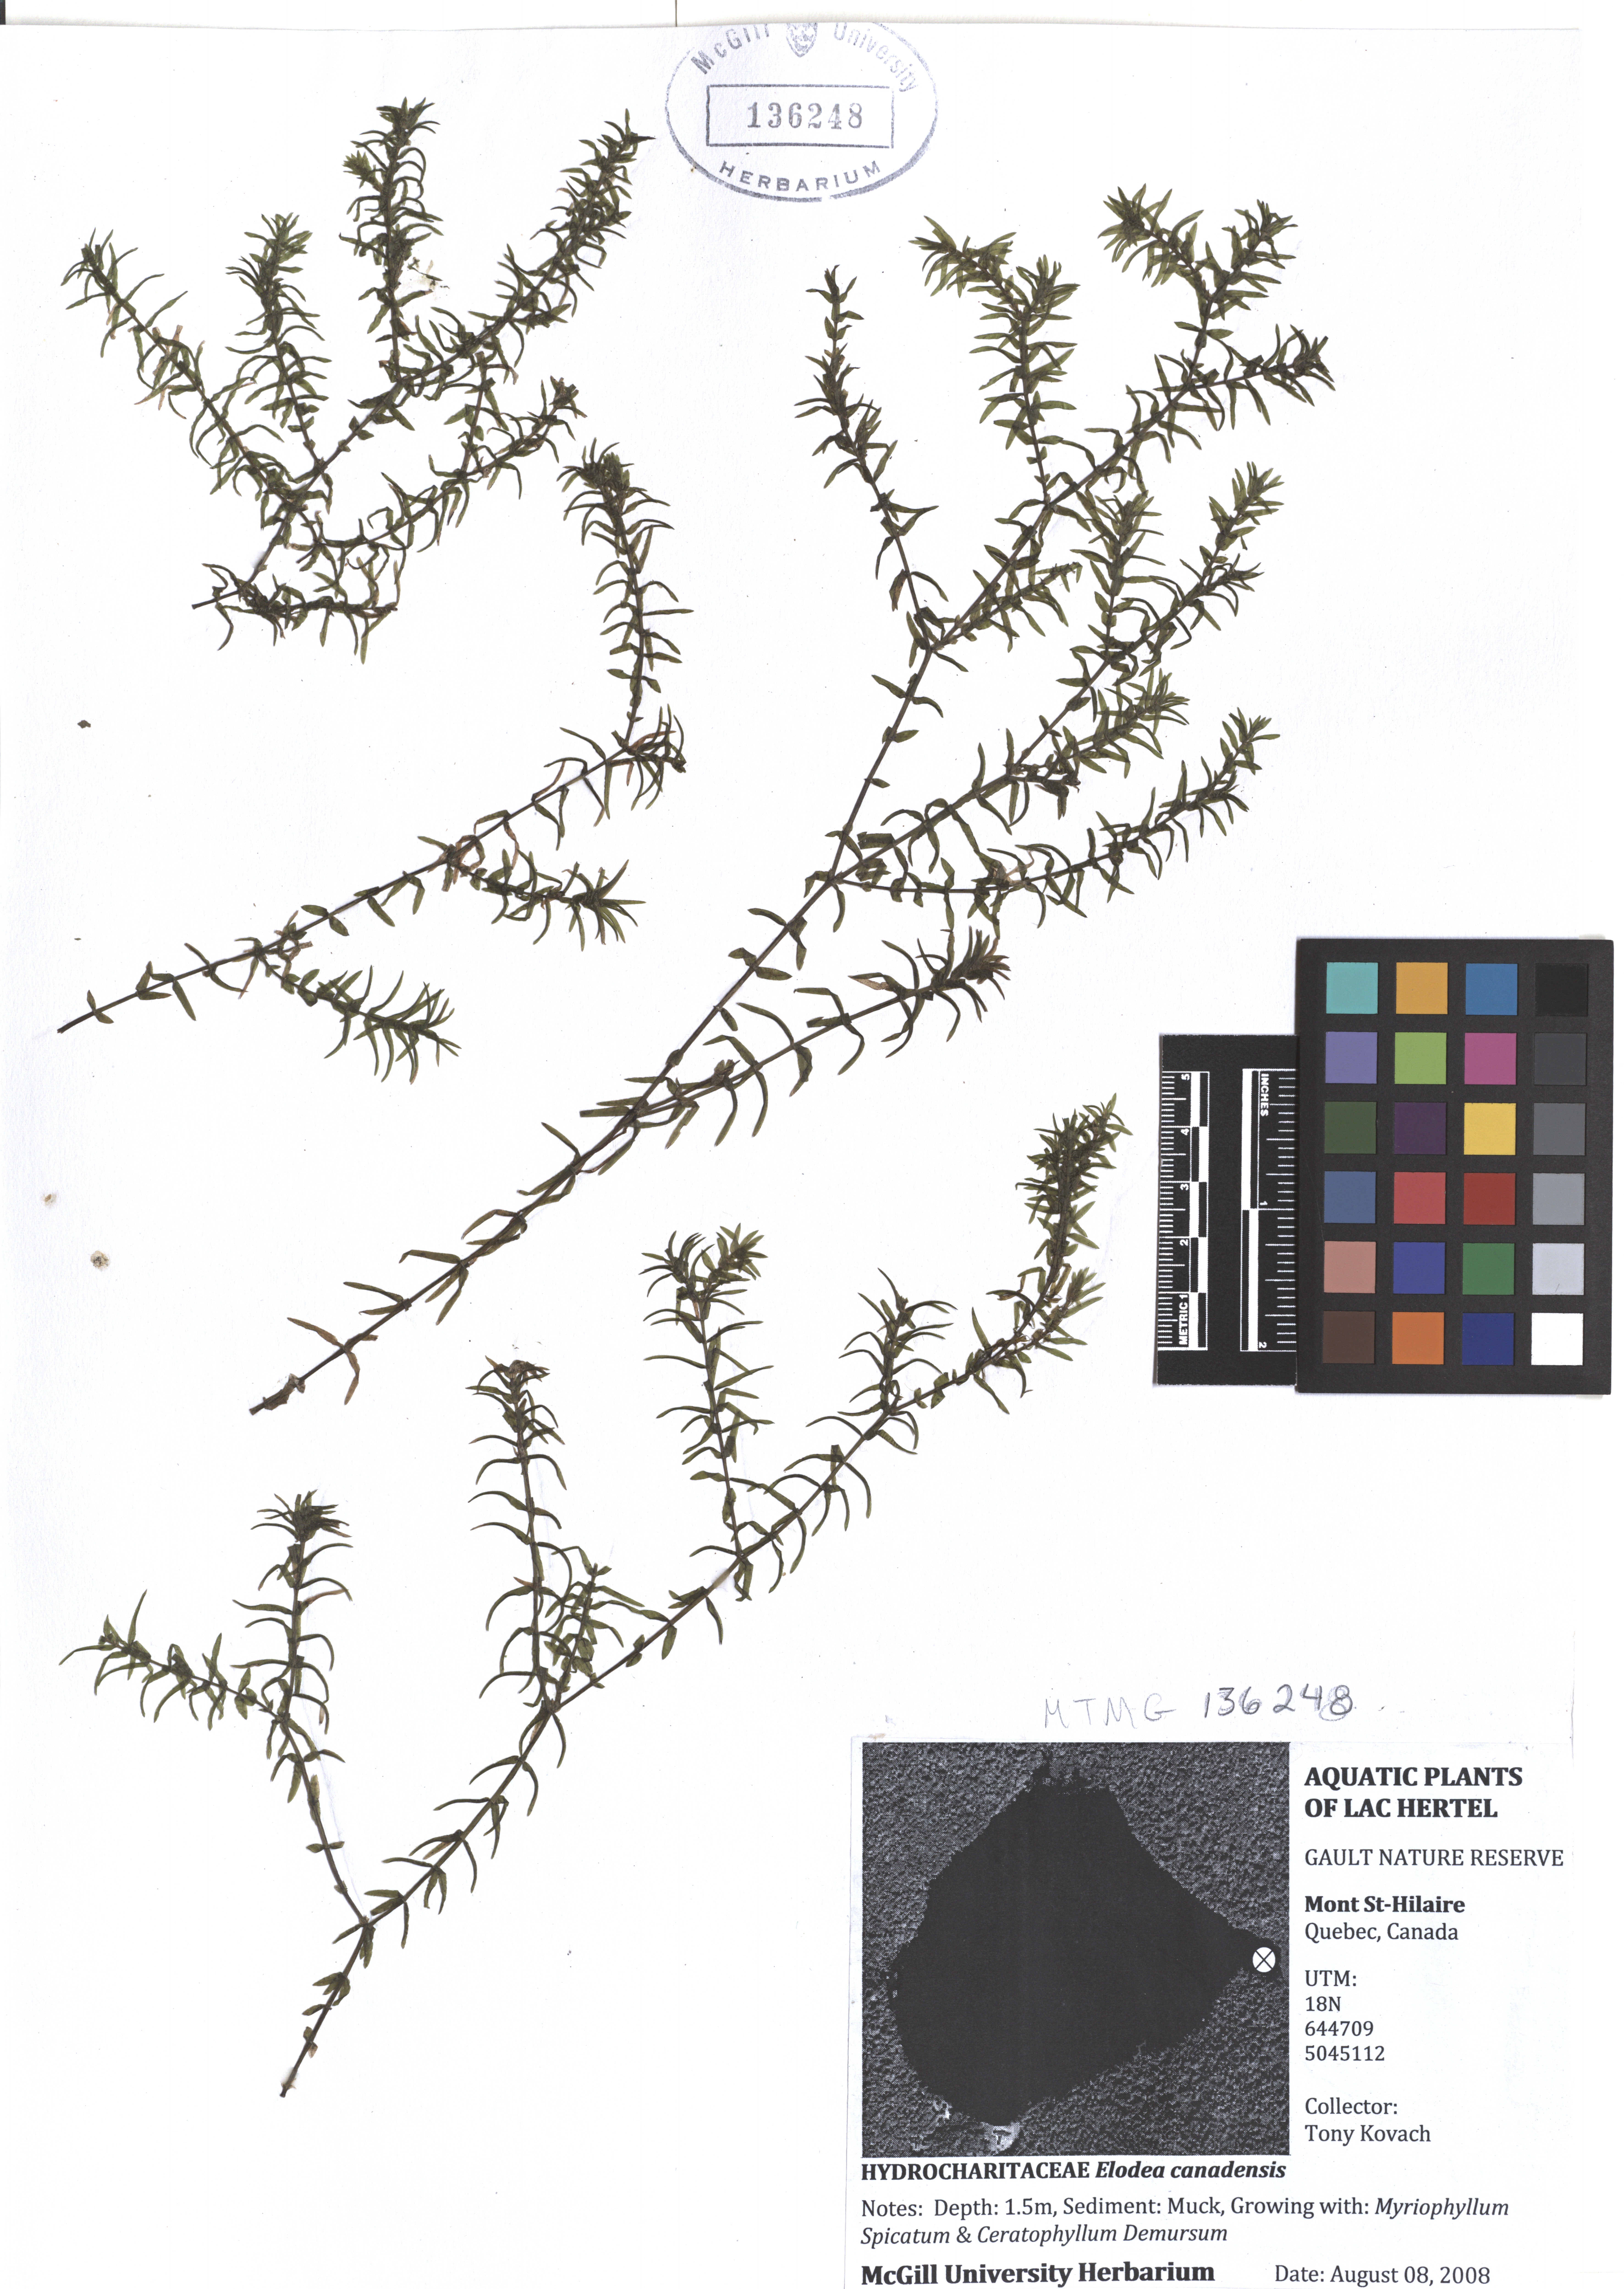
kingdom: Plantae
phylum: Tracheophyta
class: Liliopsida
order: Alismatales
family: Hydrocharitaceae
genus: Elodea
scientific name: Elodea canadensis
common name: Canadian waterweed
